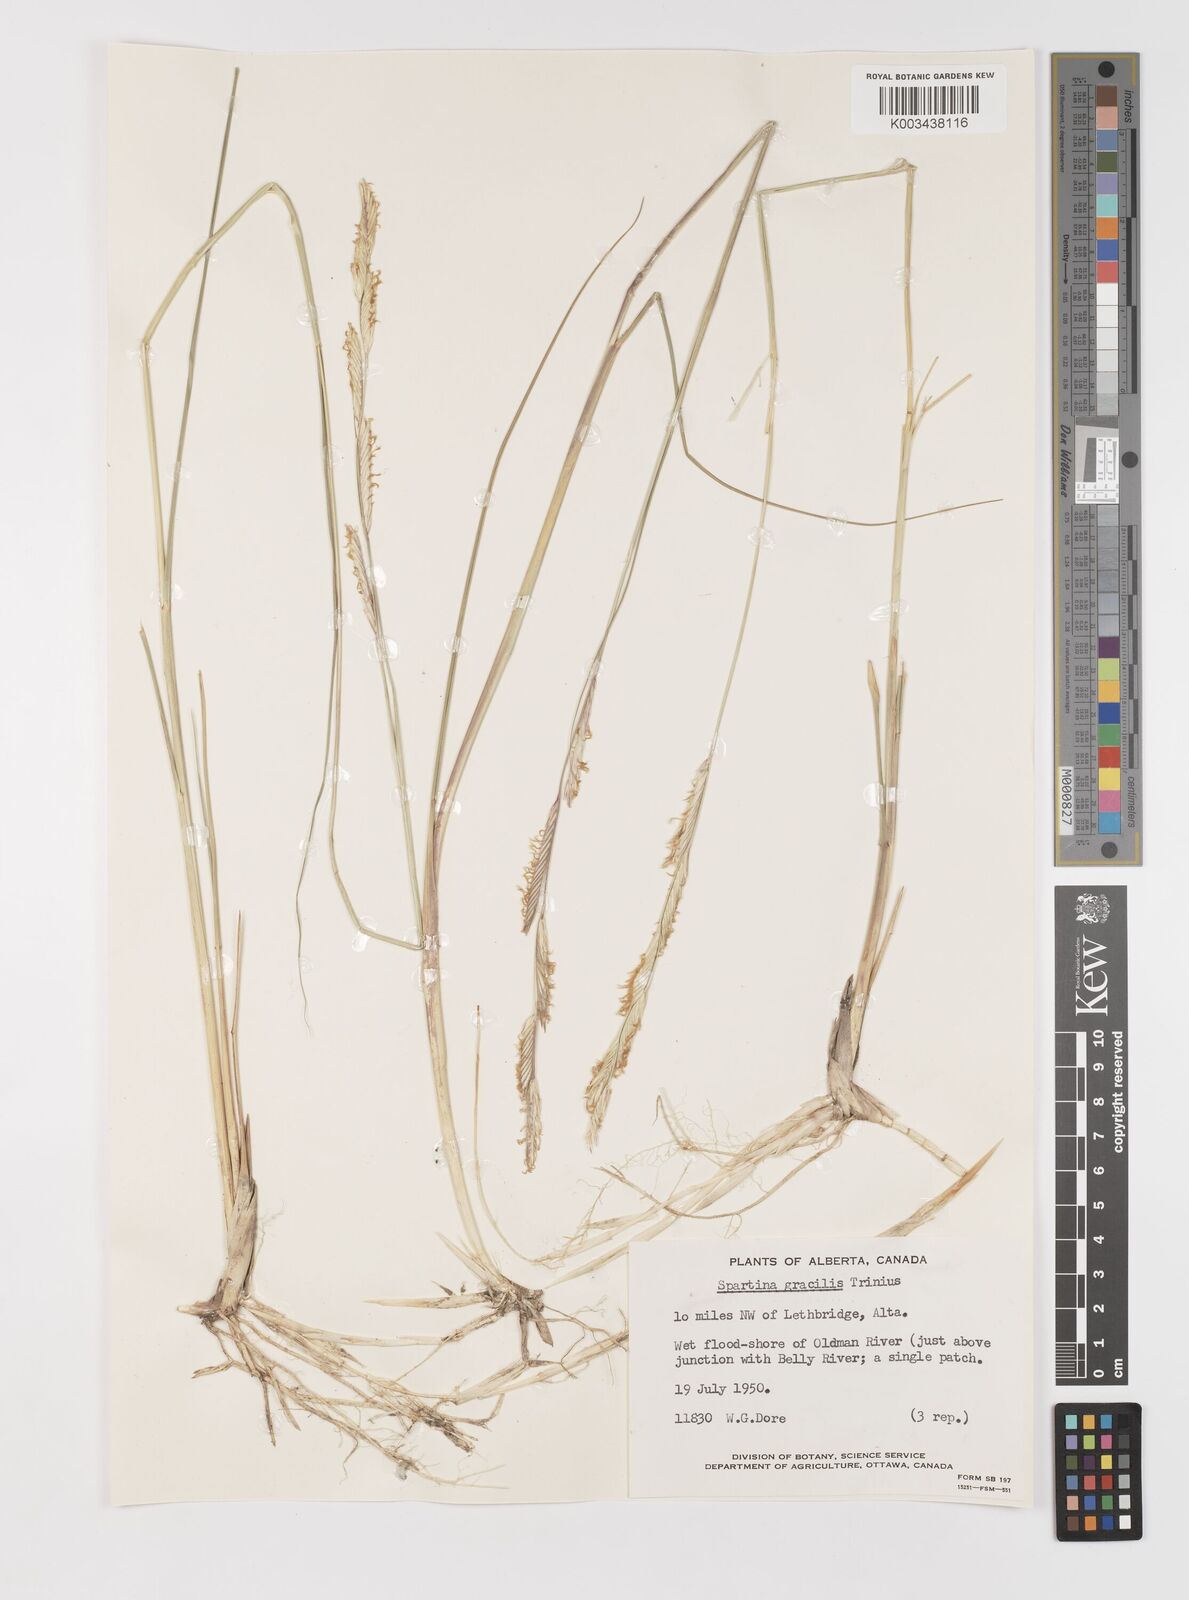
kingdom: Plantae
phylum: Tracheophyta
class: Liliopsida
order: Poales
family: Poaceae
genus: Sporobolus
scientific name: Sporobolus hookerianus
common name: Alkali cordgrass
